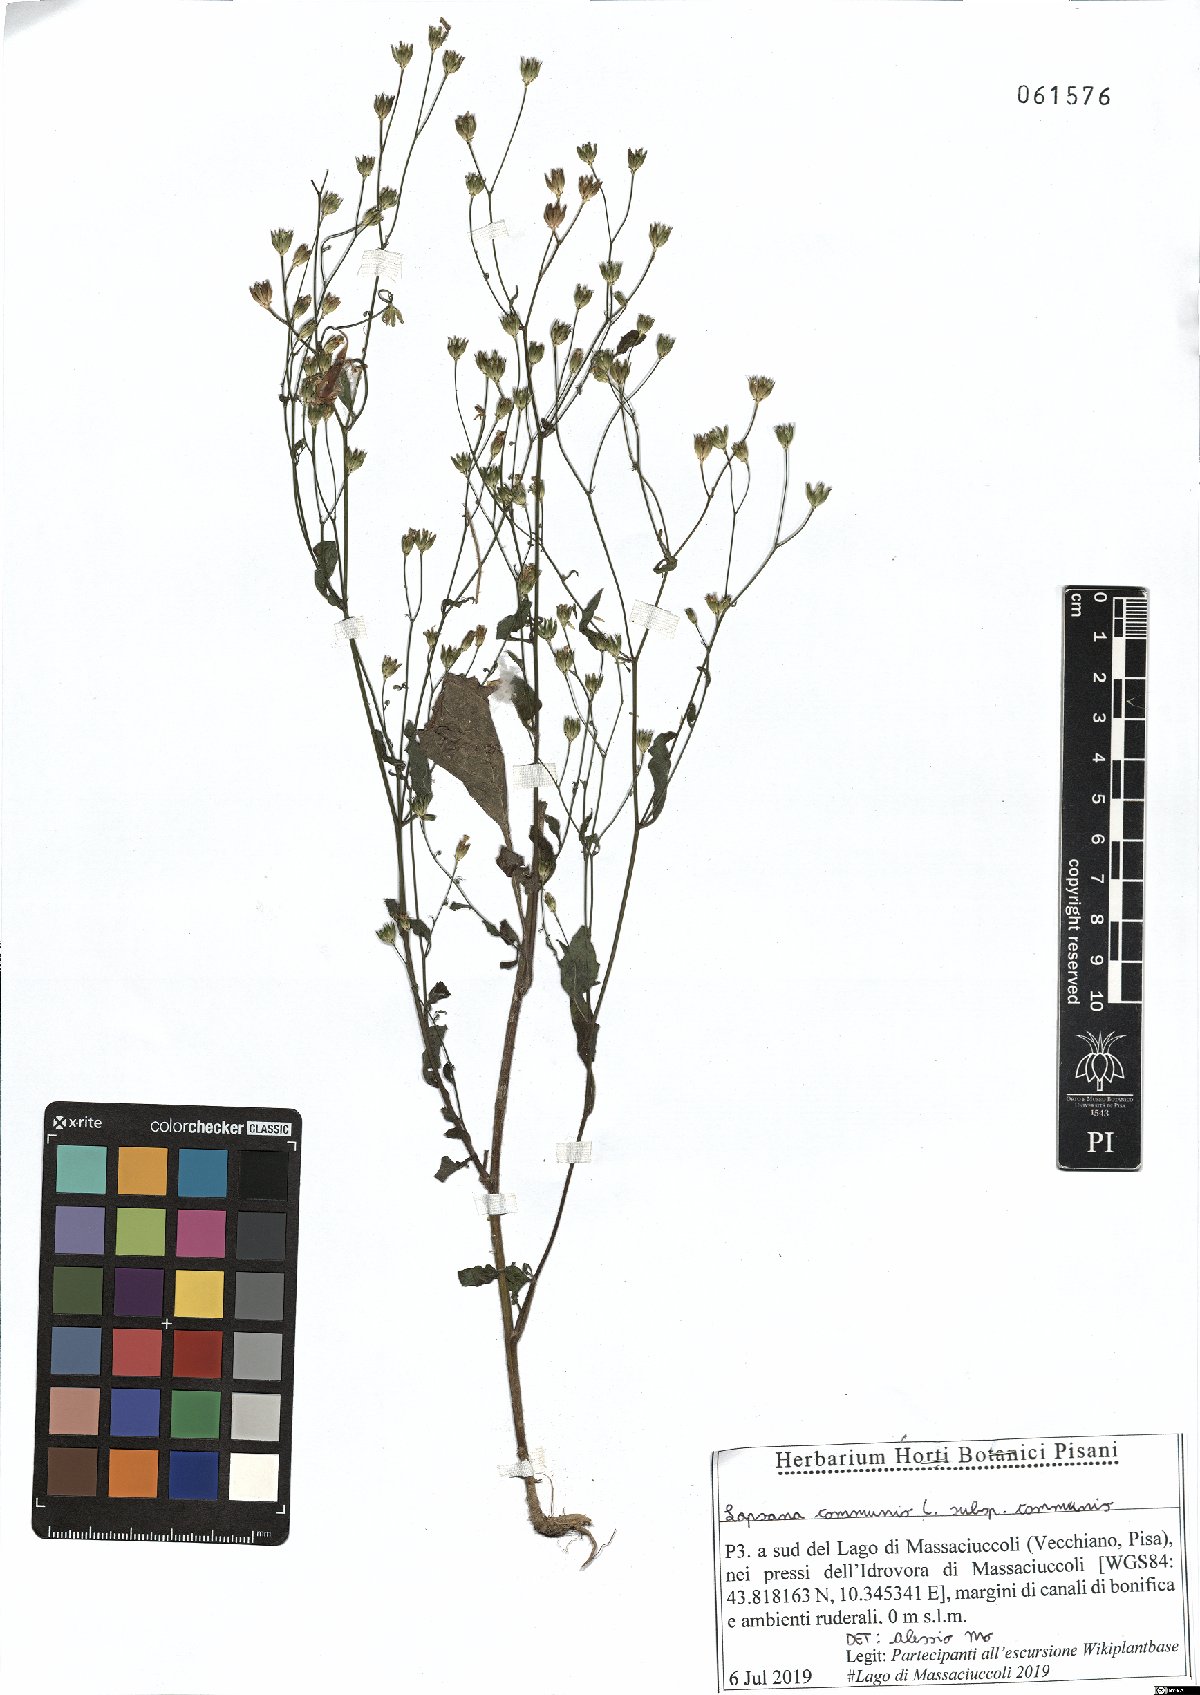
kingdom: Plantae
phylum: Tracheophyta
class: Magnoliopsida
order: Asterales
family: Asteraceae
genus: Lapsana
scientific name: Lapsana communis
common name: Nipplewort
